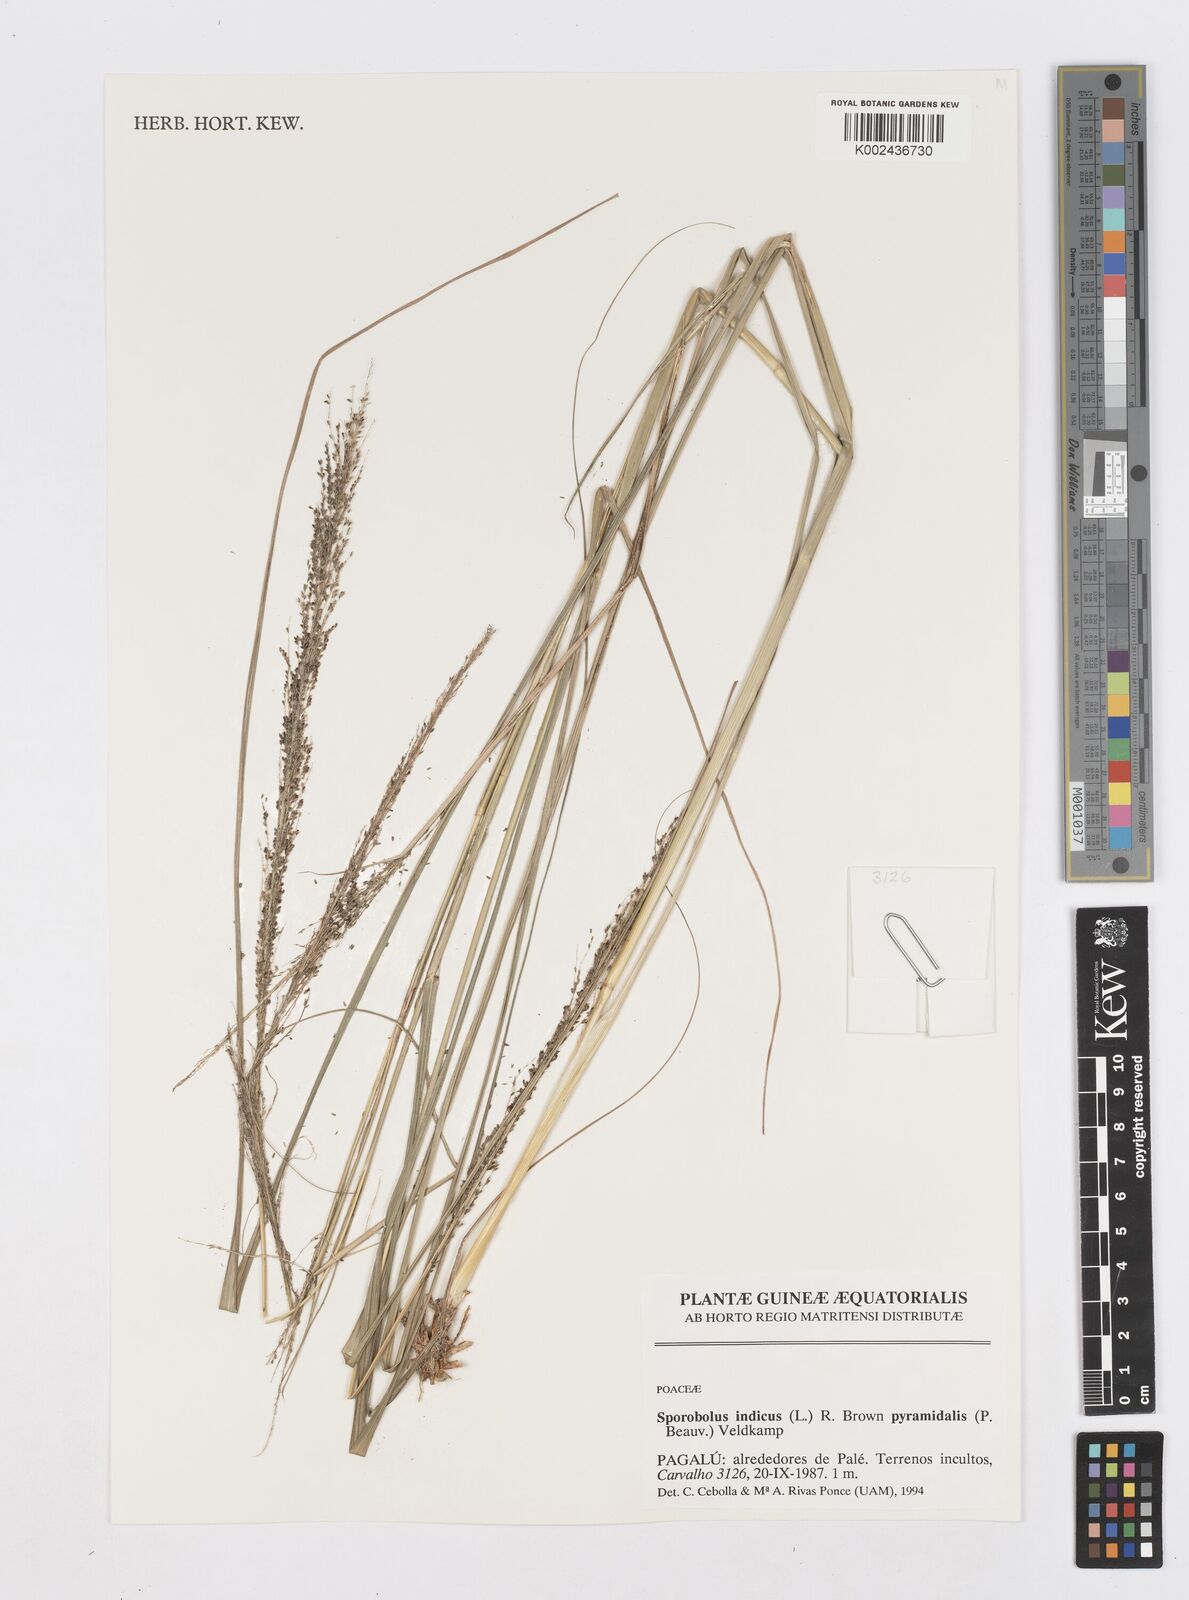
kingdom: Plantae
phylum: Tracheophyta
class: Liliopsida
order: Poales
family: Poaceae
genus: Sporobolus
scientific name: Sporobolus pyramidalis
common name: West indian dropseed
